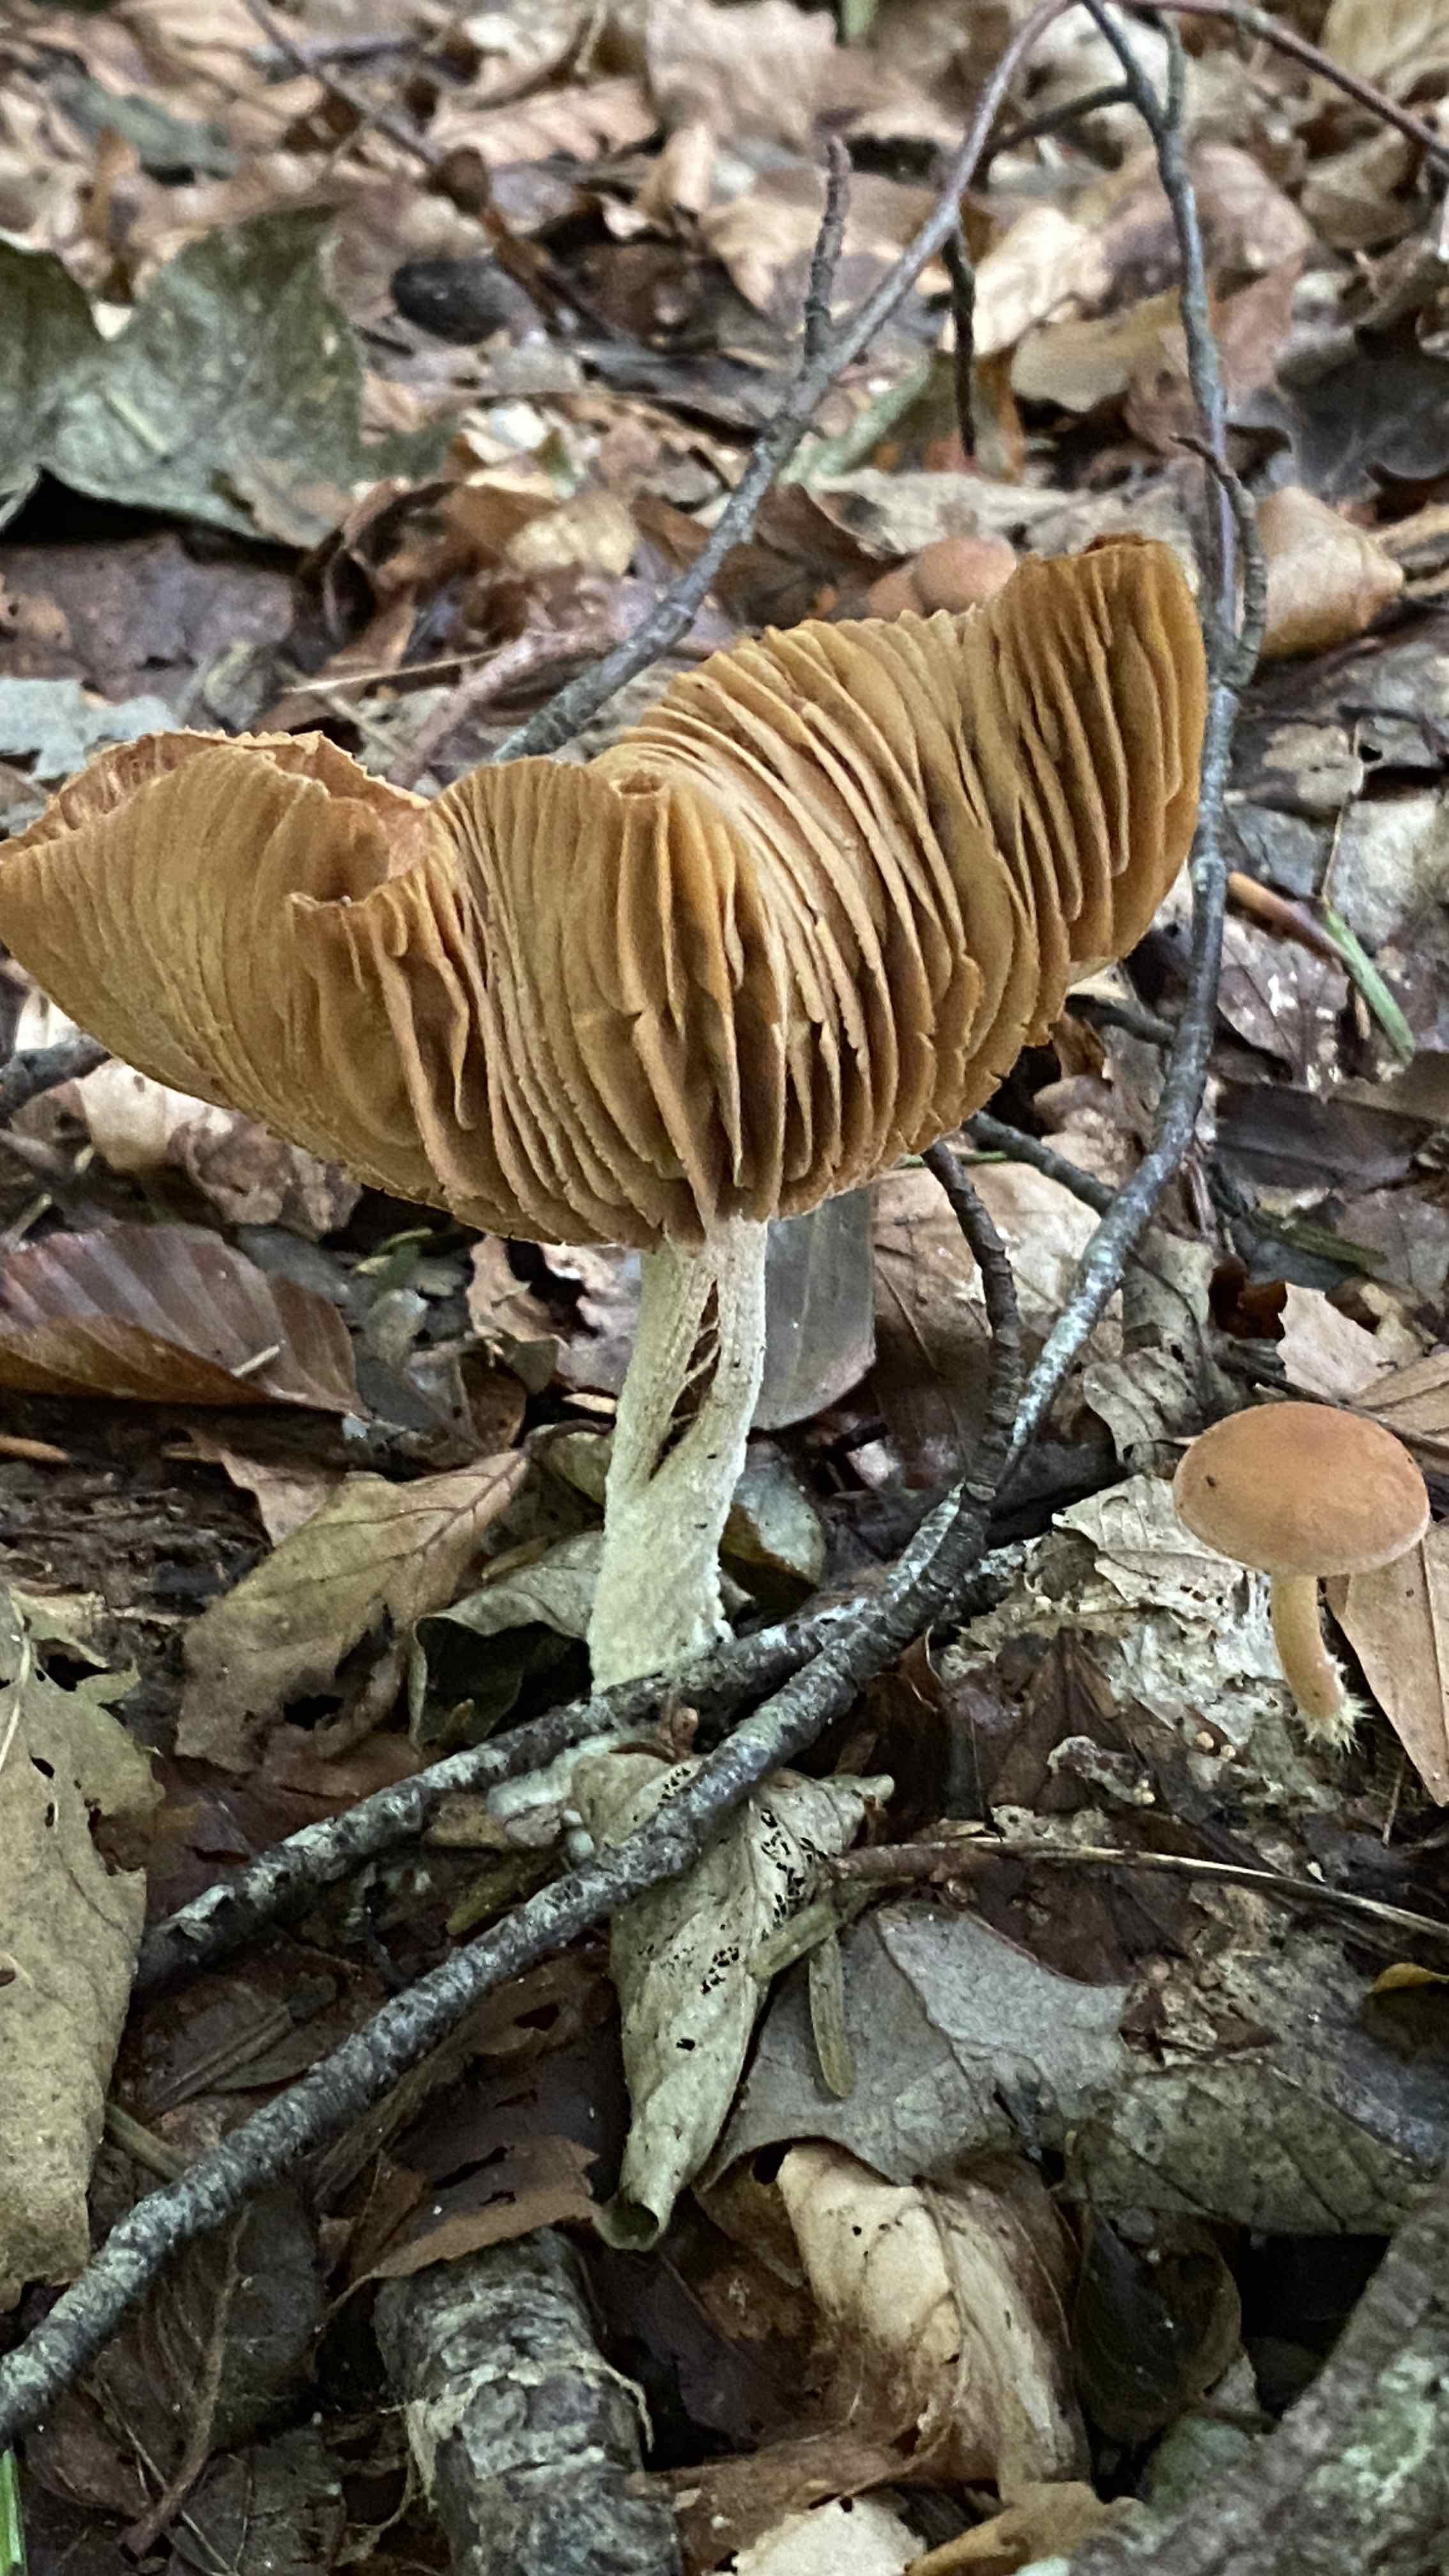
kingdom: Fungi
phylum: Basidiomycota
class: Agaricomycetes
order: Agaricales
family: Omphalotaceae
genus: Collybiopsis
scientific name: Collybiopsis peronata
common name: bestøvlet fladhat
